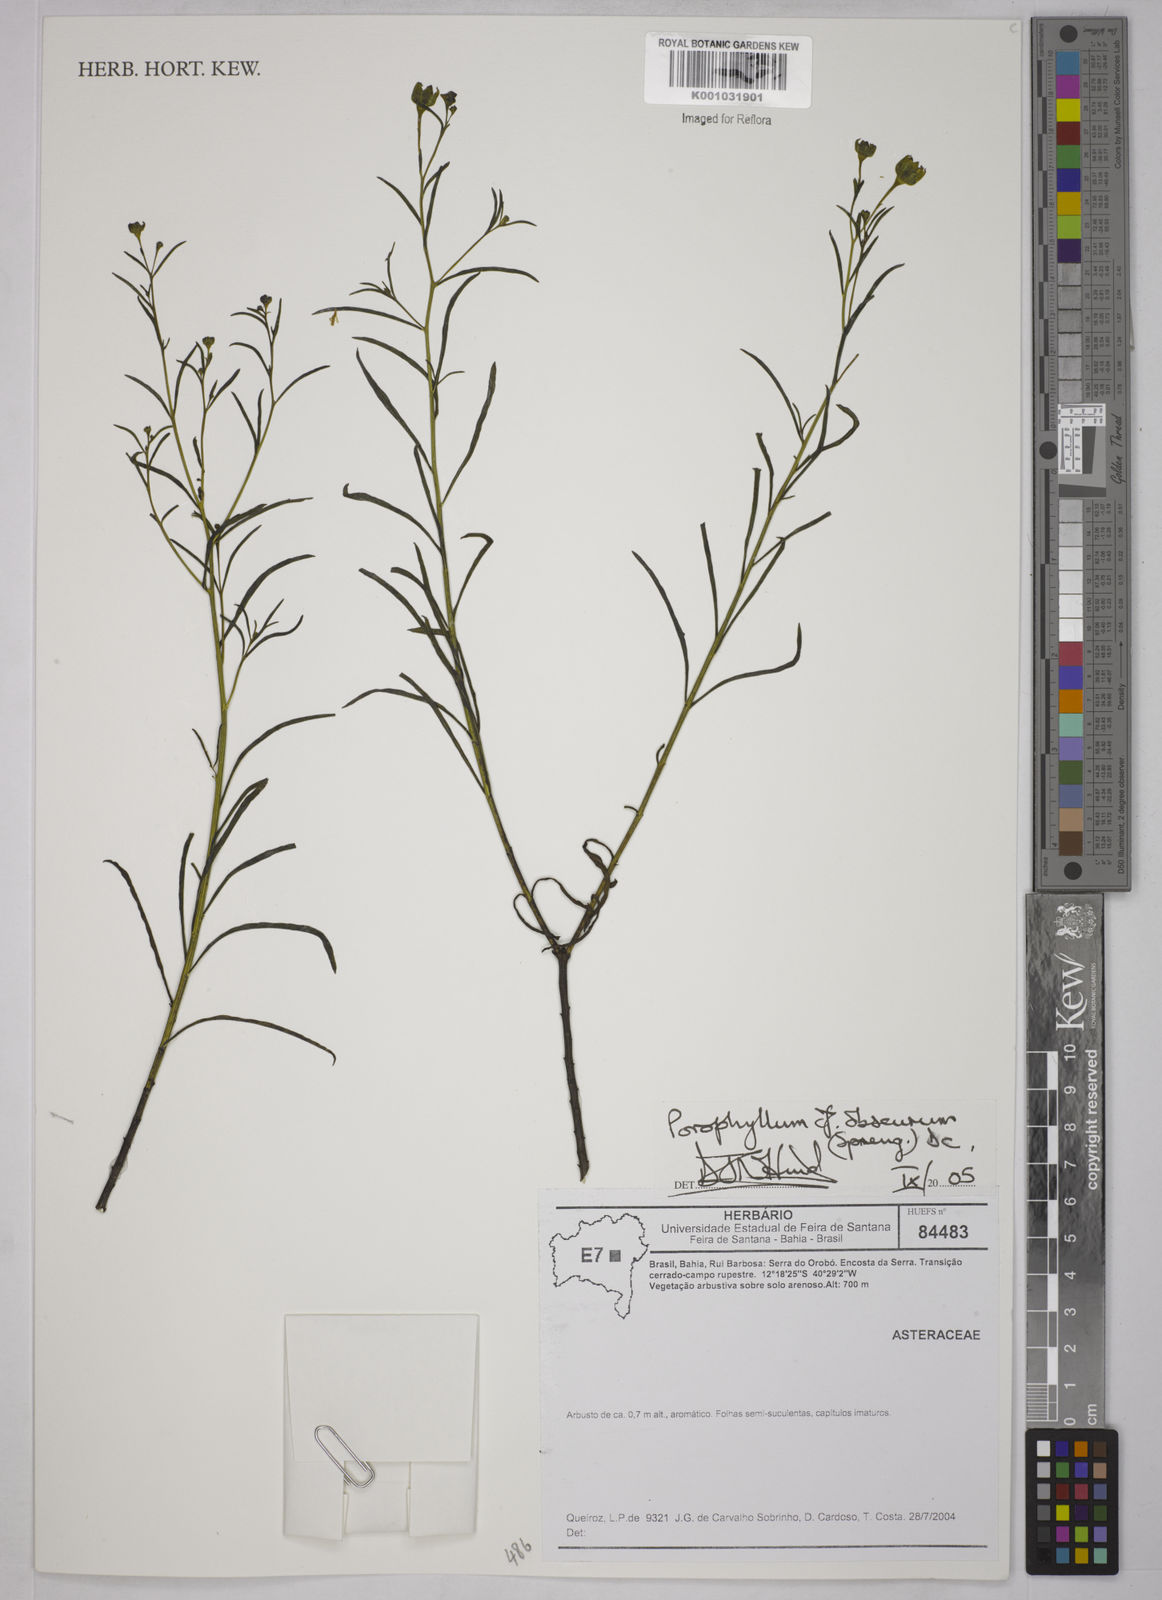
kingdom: Plantae
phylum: Tracheophyta
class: Magnoliopsida
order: Asterales
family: Asteraceae
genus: Porophyllum
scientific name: Porophyllum angustissimum
